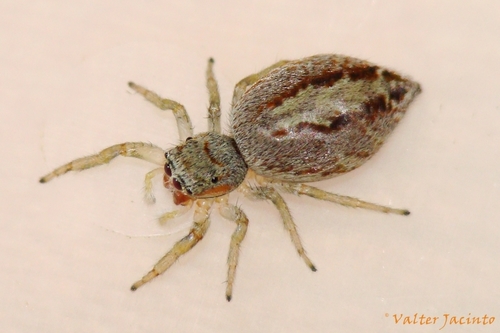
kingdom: Animalia
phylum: Arthropoda
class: Arachnida
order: Araneae
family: Salticidae
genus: Icius
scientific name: Icius simoni
